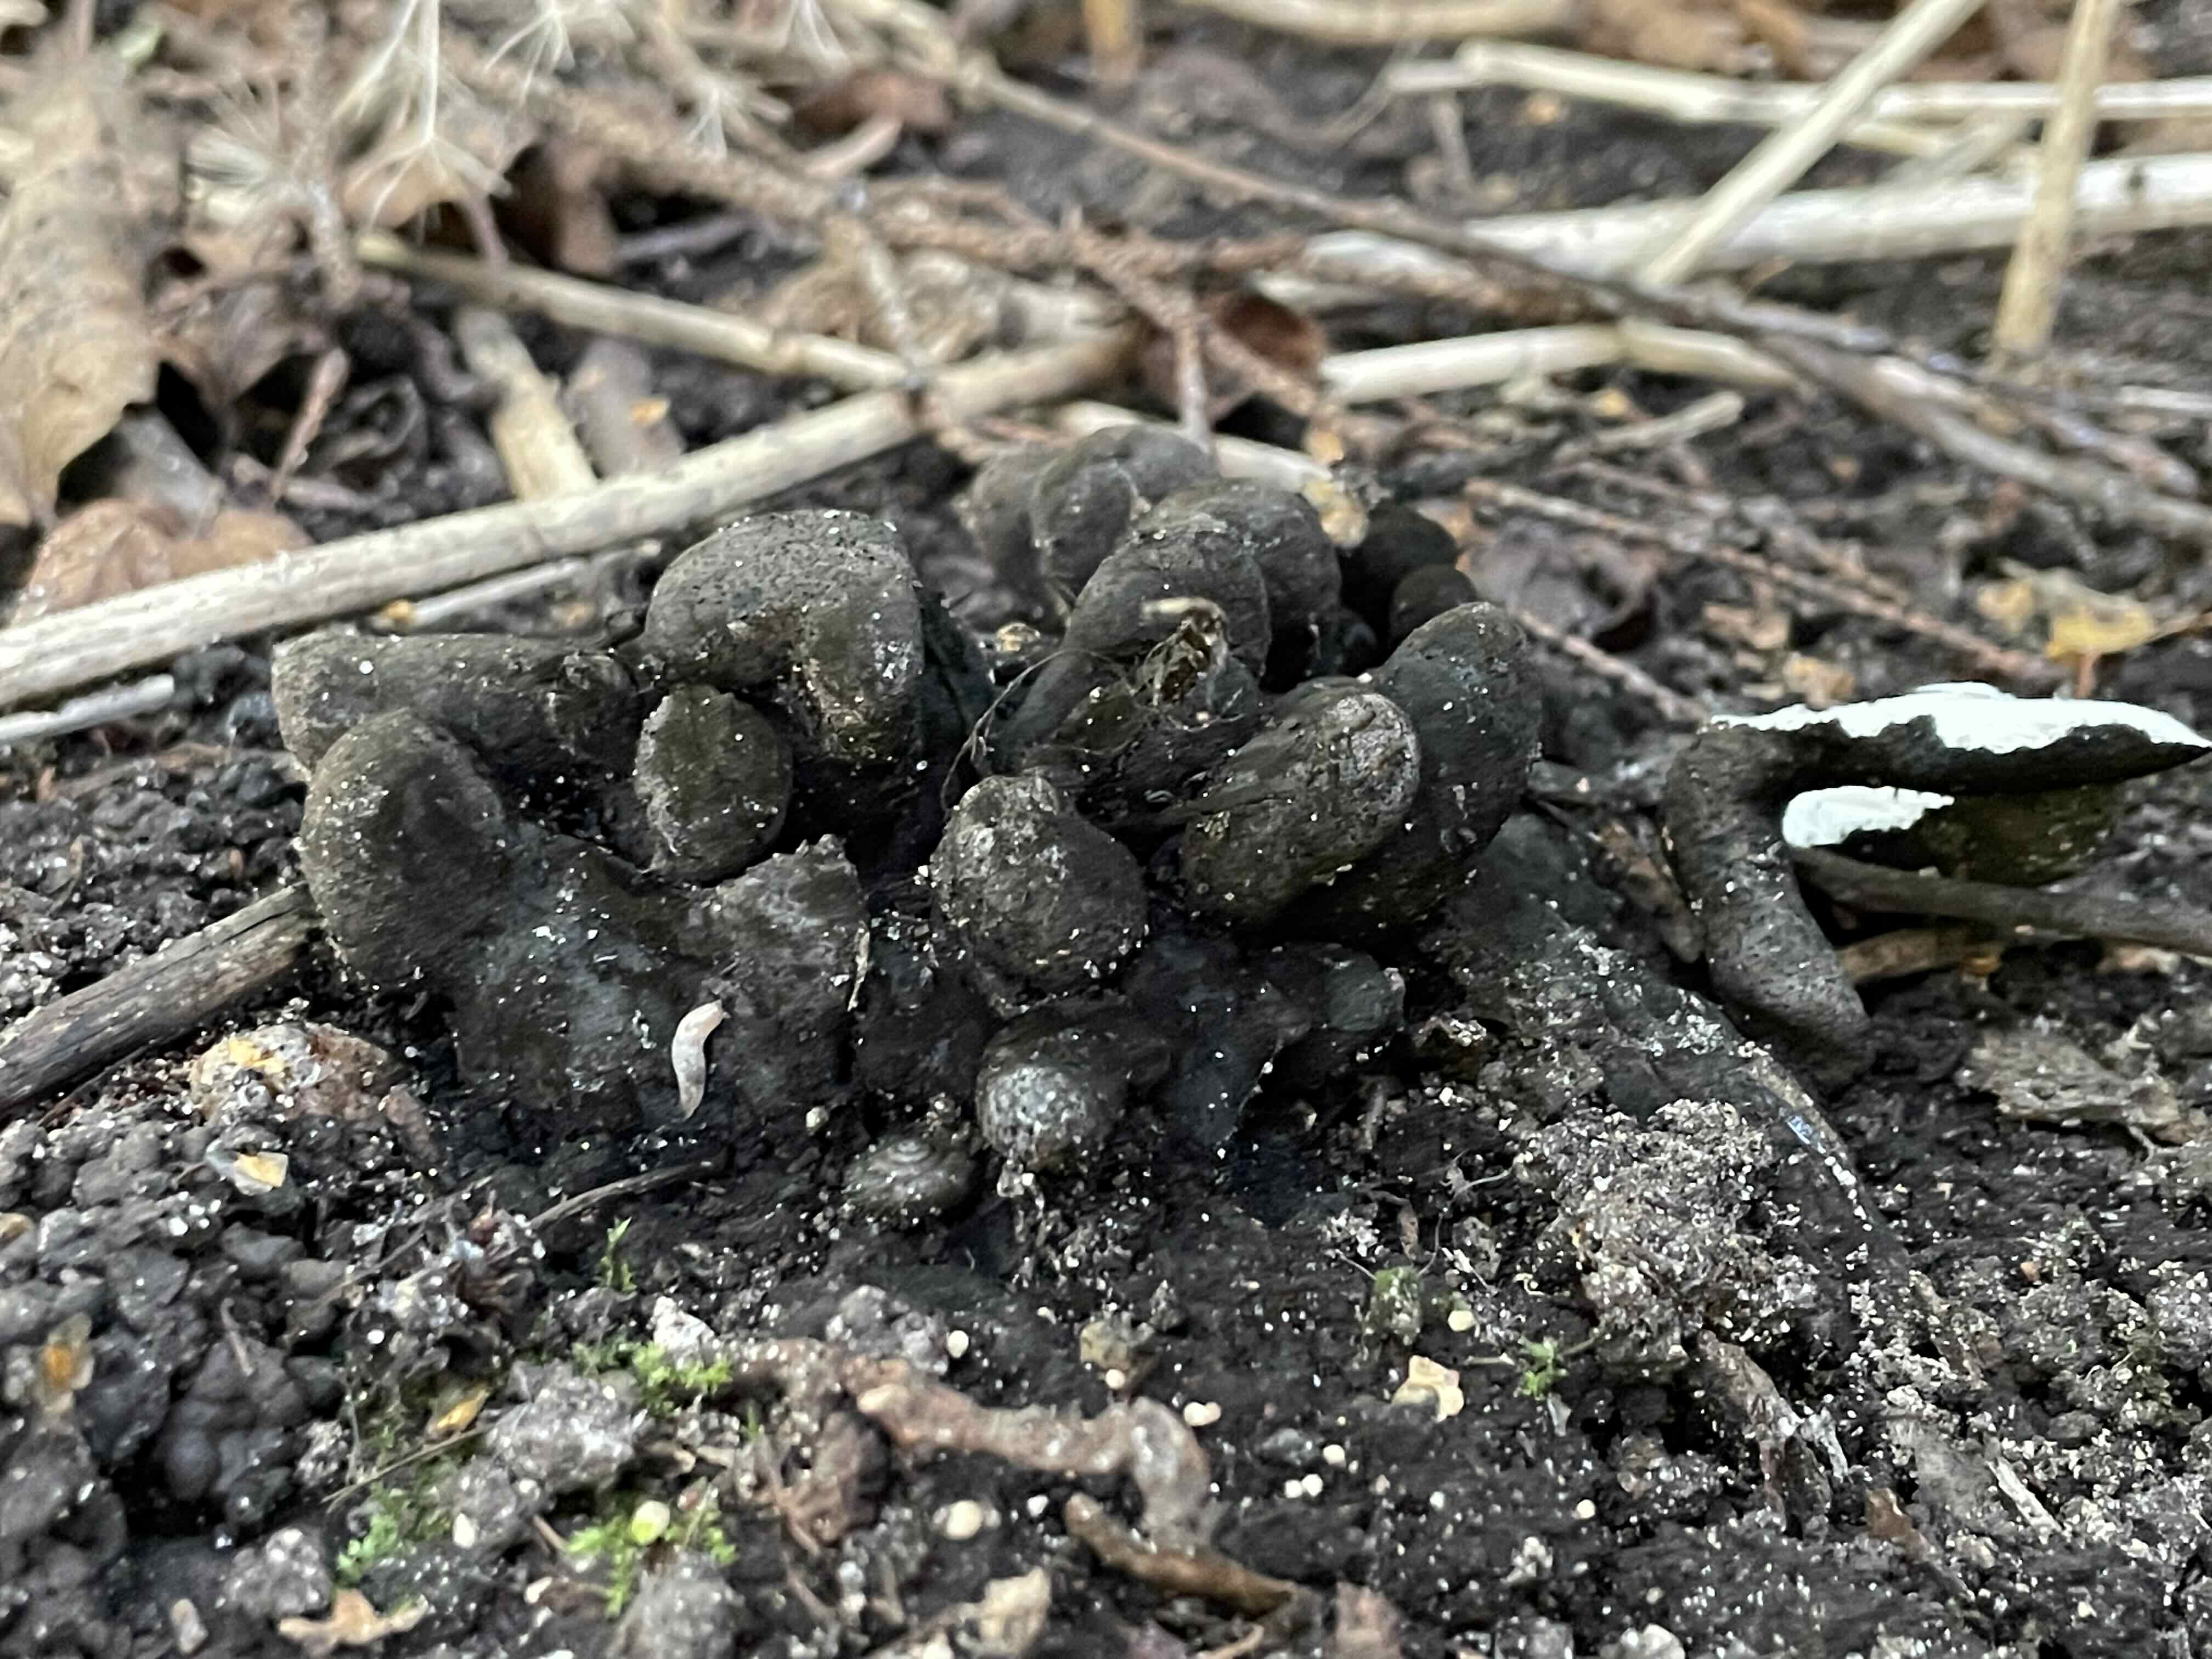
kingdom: Fungi
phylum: Ascomycota
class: Sordariomycetes
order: Xylariales
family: Xylariaceae
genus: Xylaria
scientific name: Xylaria polymorpha
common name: kølle-stødsvamp
